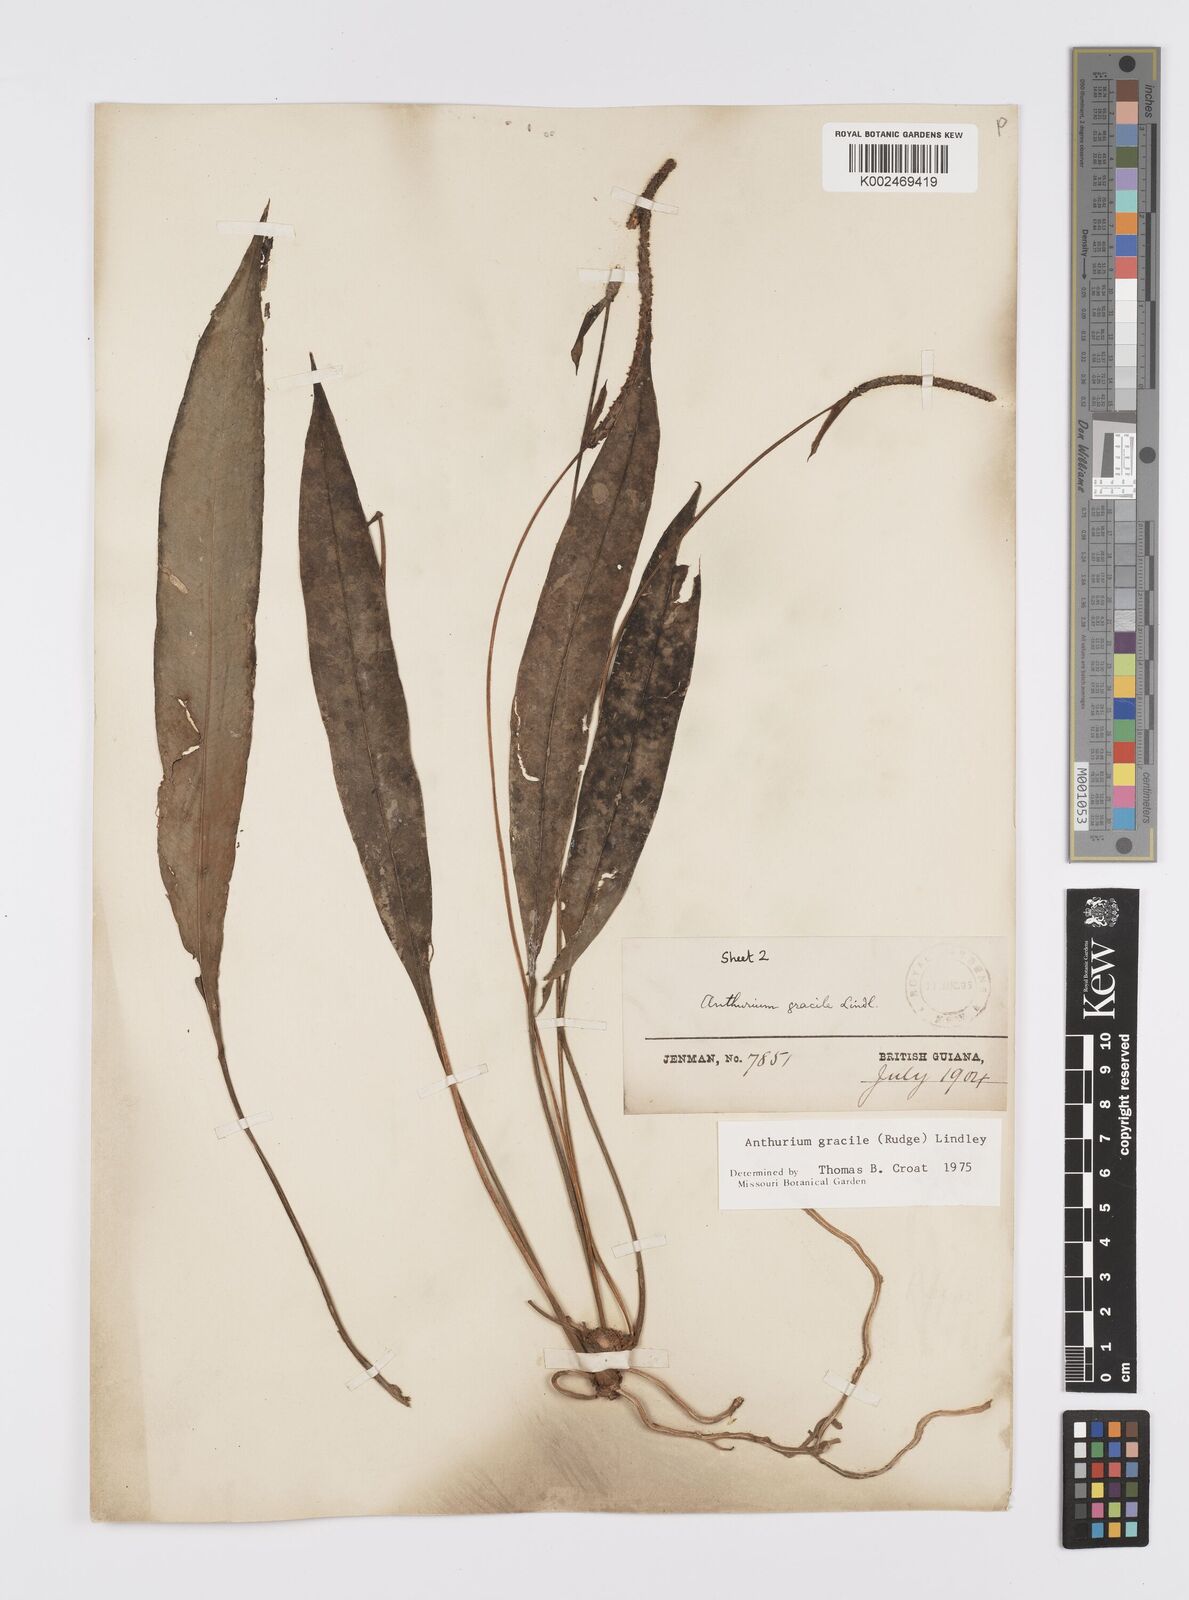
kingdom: Plantae
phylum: Tracheophyta
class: Liliopsida
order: Alismatales
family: Araceae
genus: Anthurium
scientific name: Anthurium gracile
